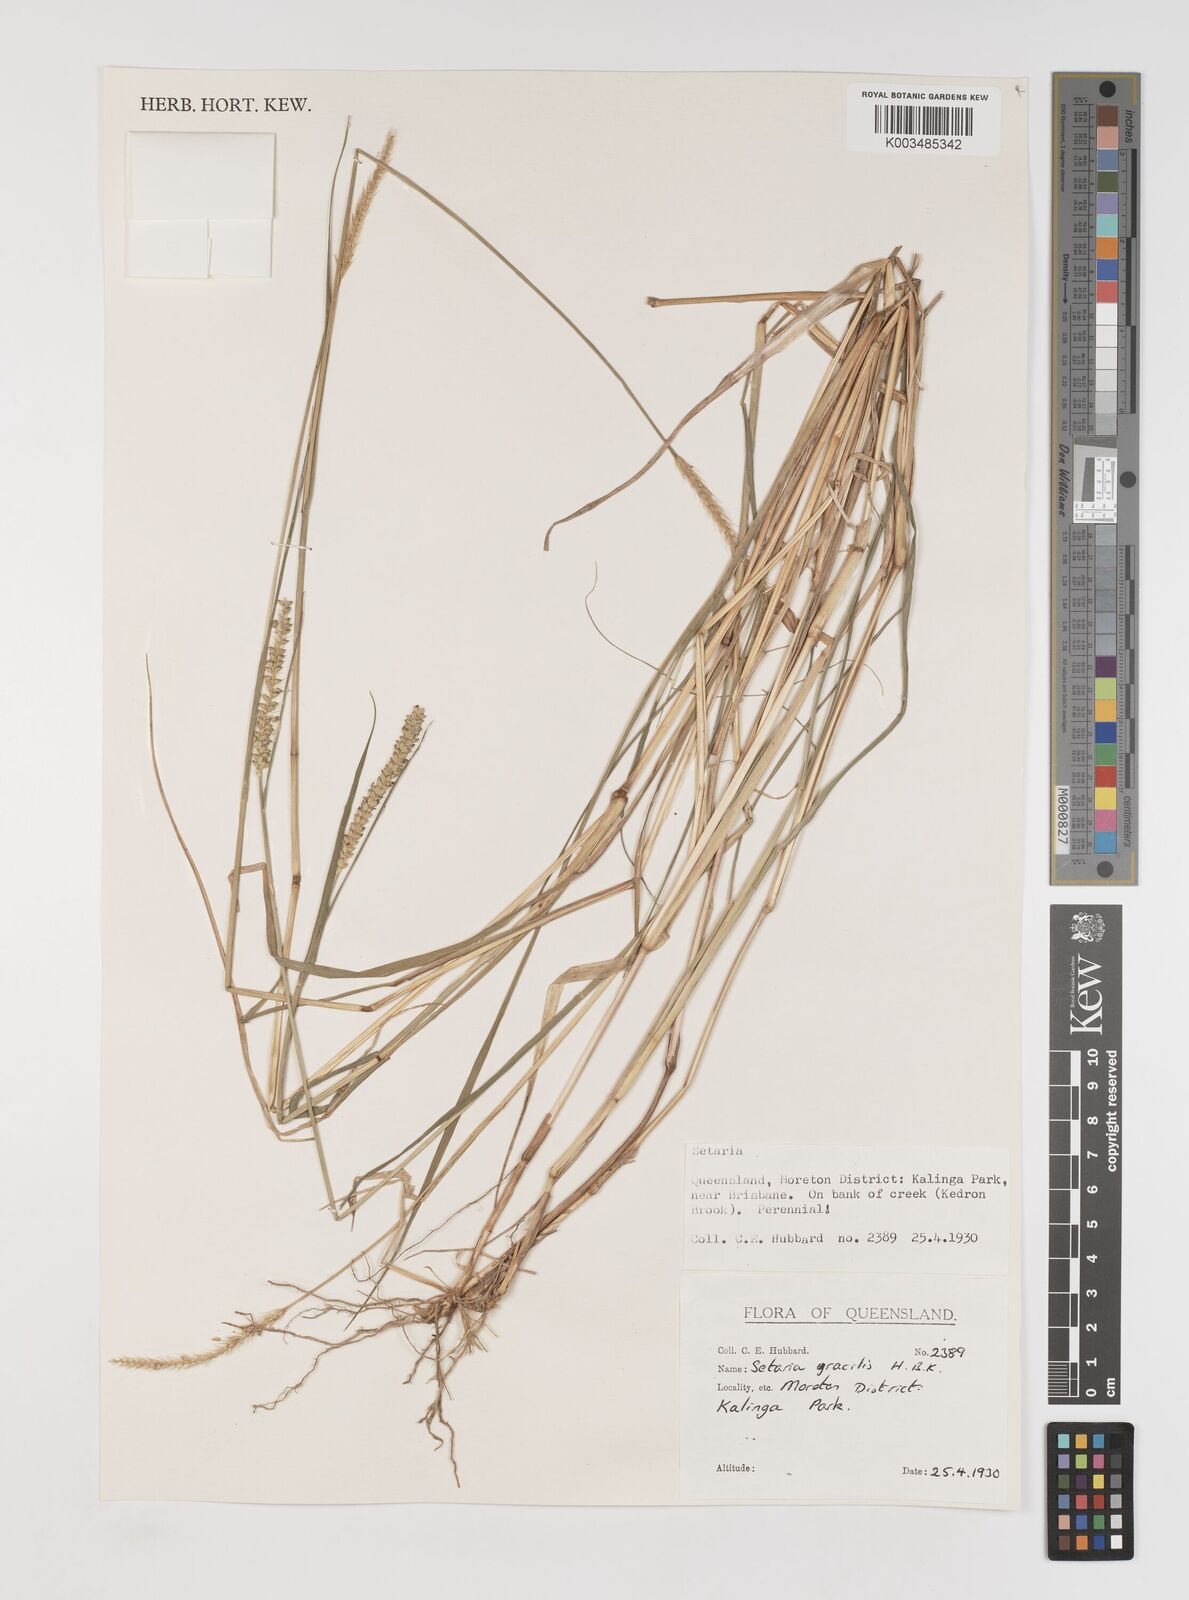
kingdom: Plantae
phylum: Tracheophyta
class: Liliopsida
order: Poales
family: Poaceae
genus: Setaria
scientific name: Setaria parviflora
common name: Knotroot bristle-grass
